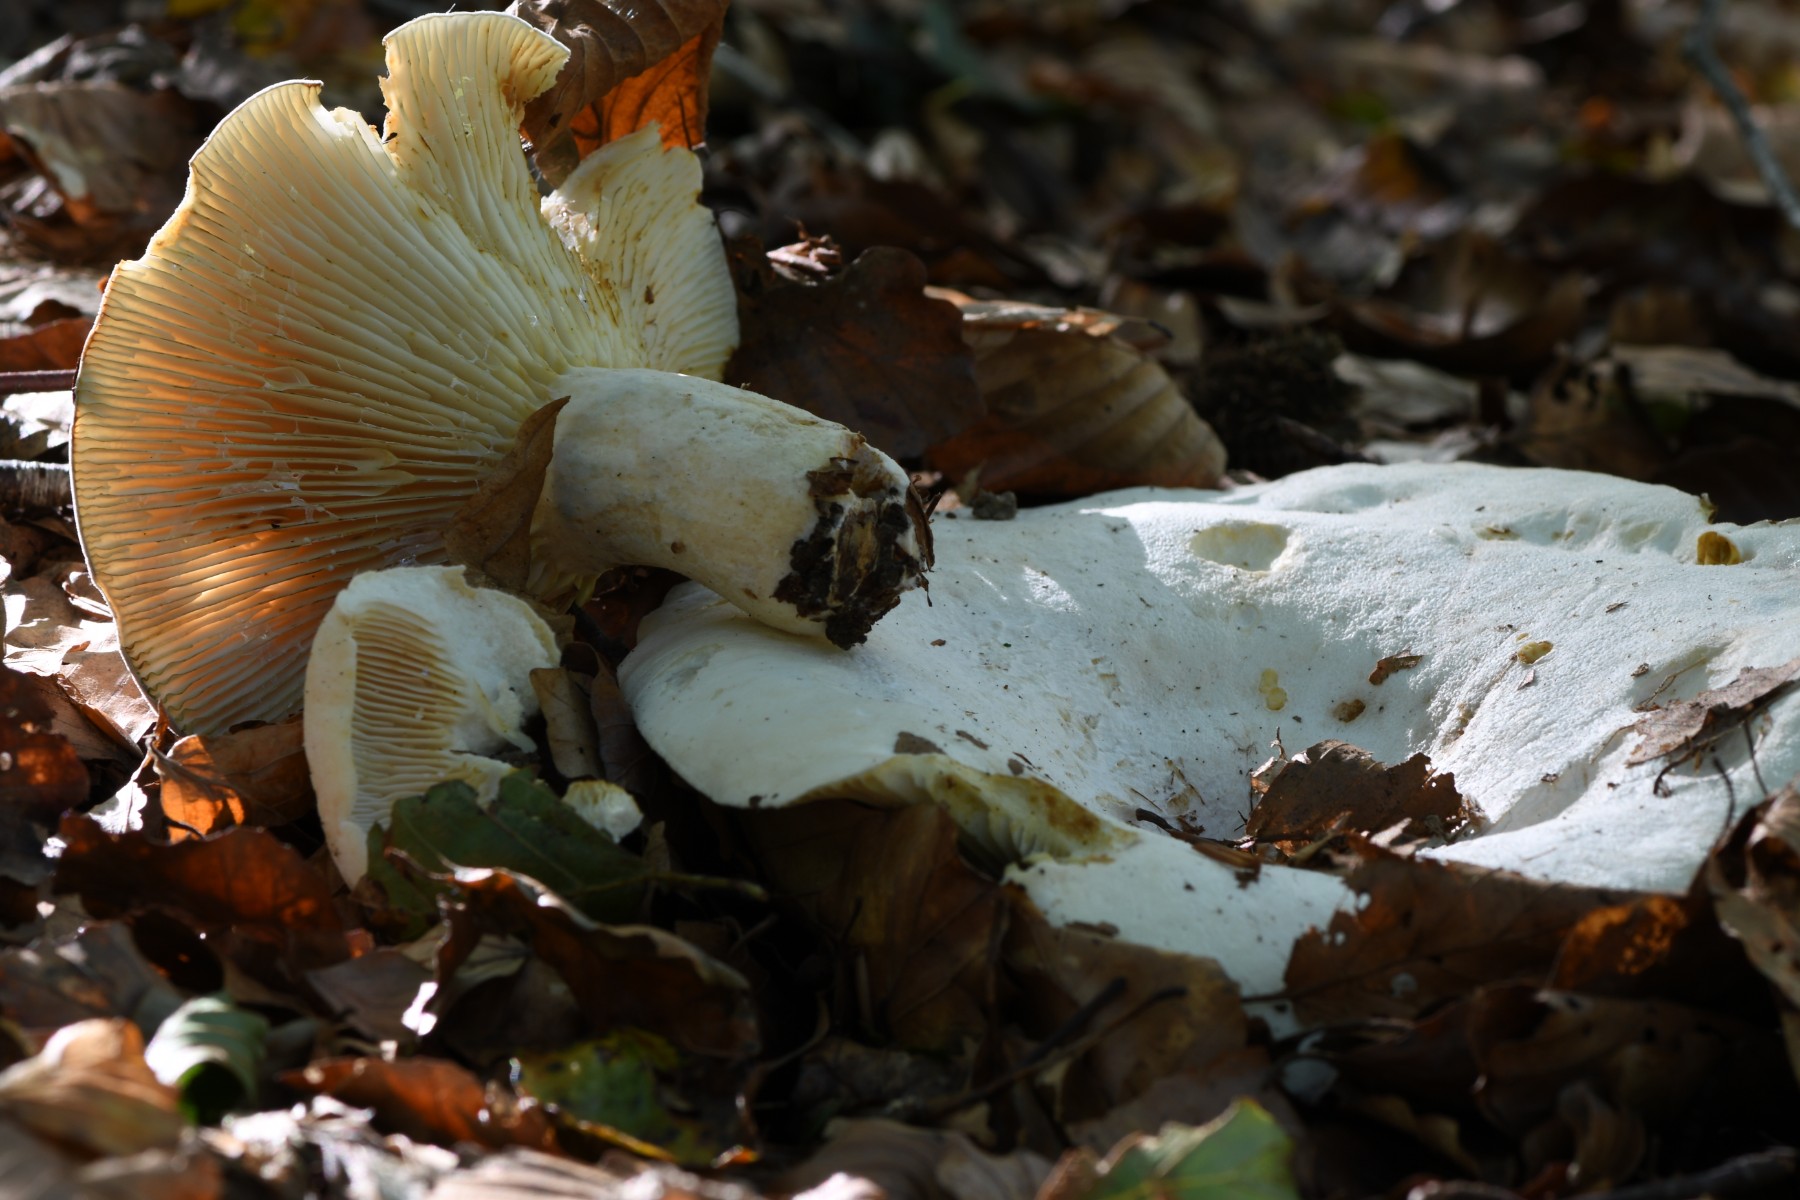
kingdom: Fungi
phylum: Basidiomycota
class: Agaricomycetes
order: Russulales
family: Russulaceae
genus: Lactifluus
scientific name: Lactifluus vellereus
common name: hvidfiltet mælkehat
